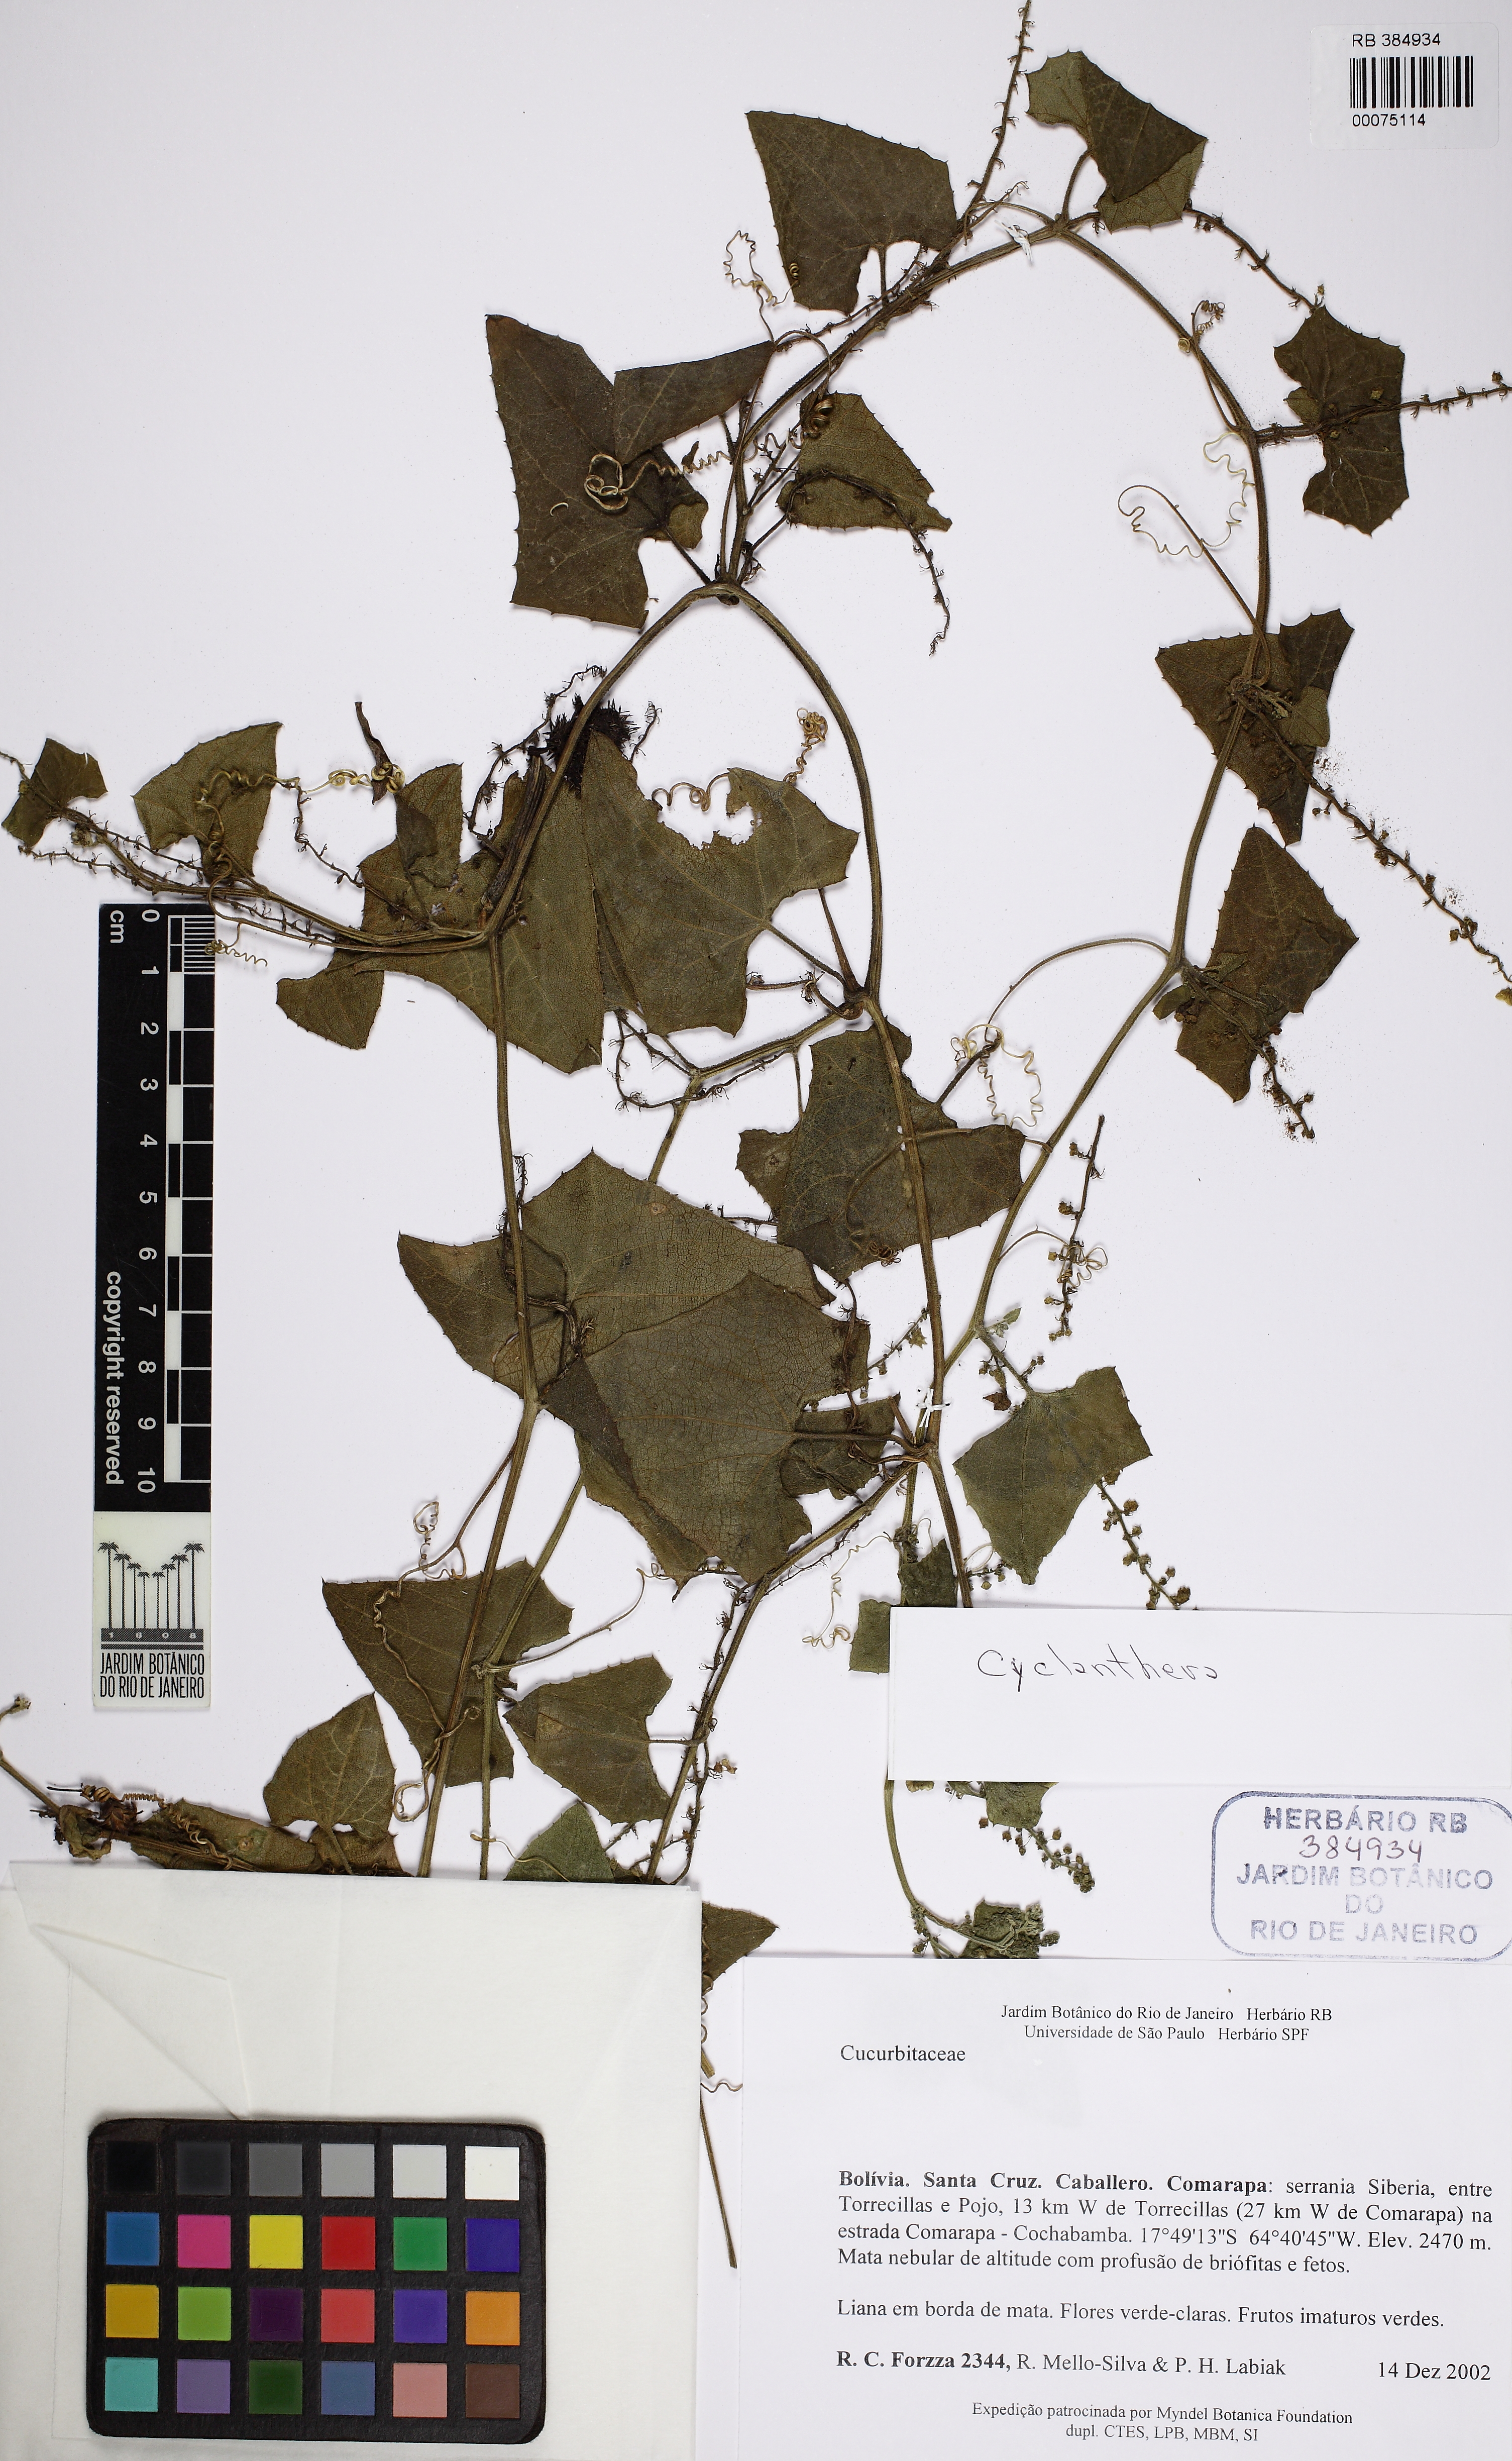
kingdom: Plantae
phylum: Tracheophyta
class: Magnoliopsida
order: Cucurbitales
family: Cucurbitaceae
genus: Cyclanthera
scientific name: Cyclanthera
